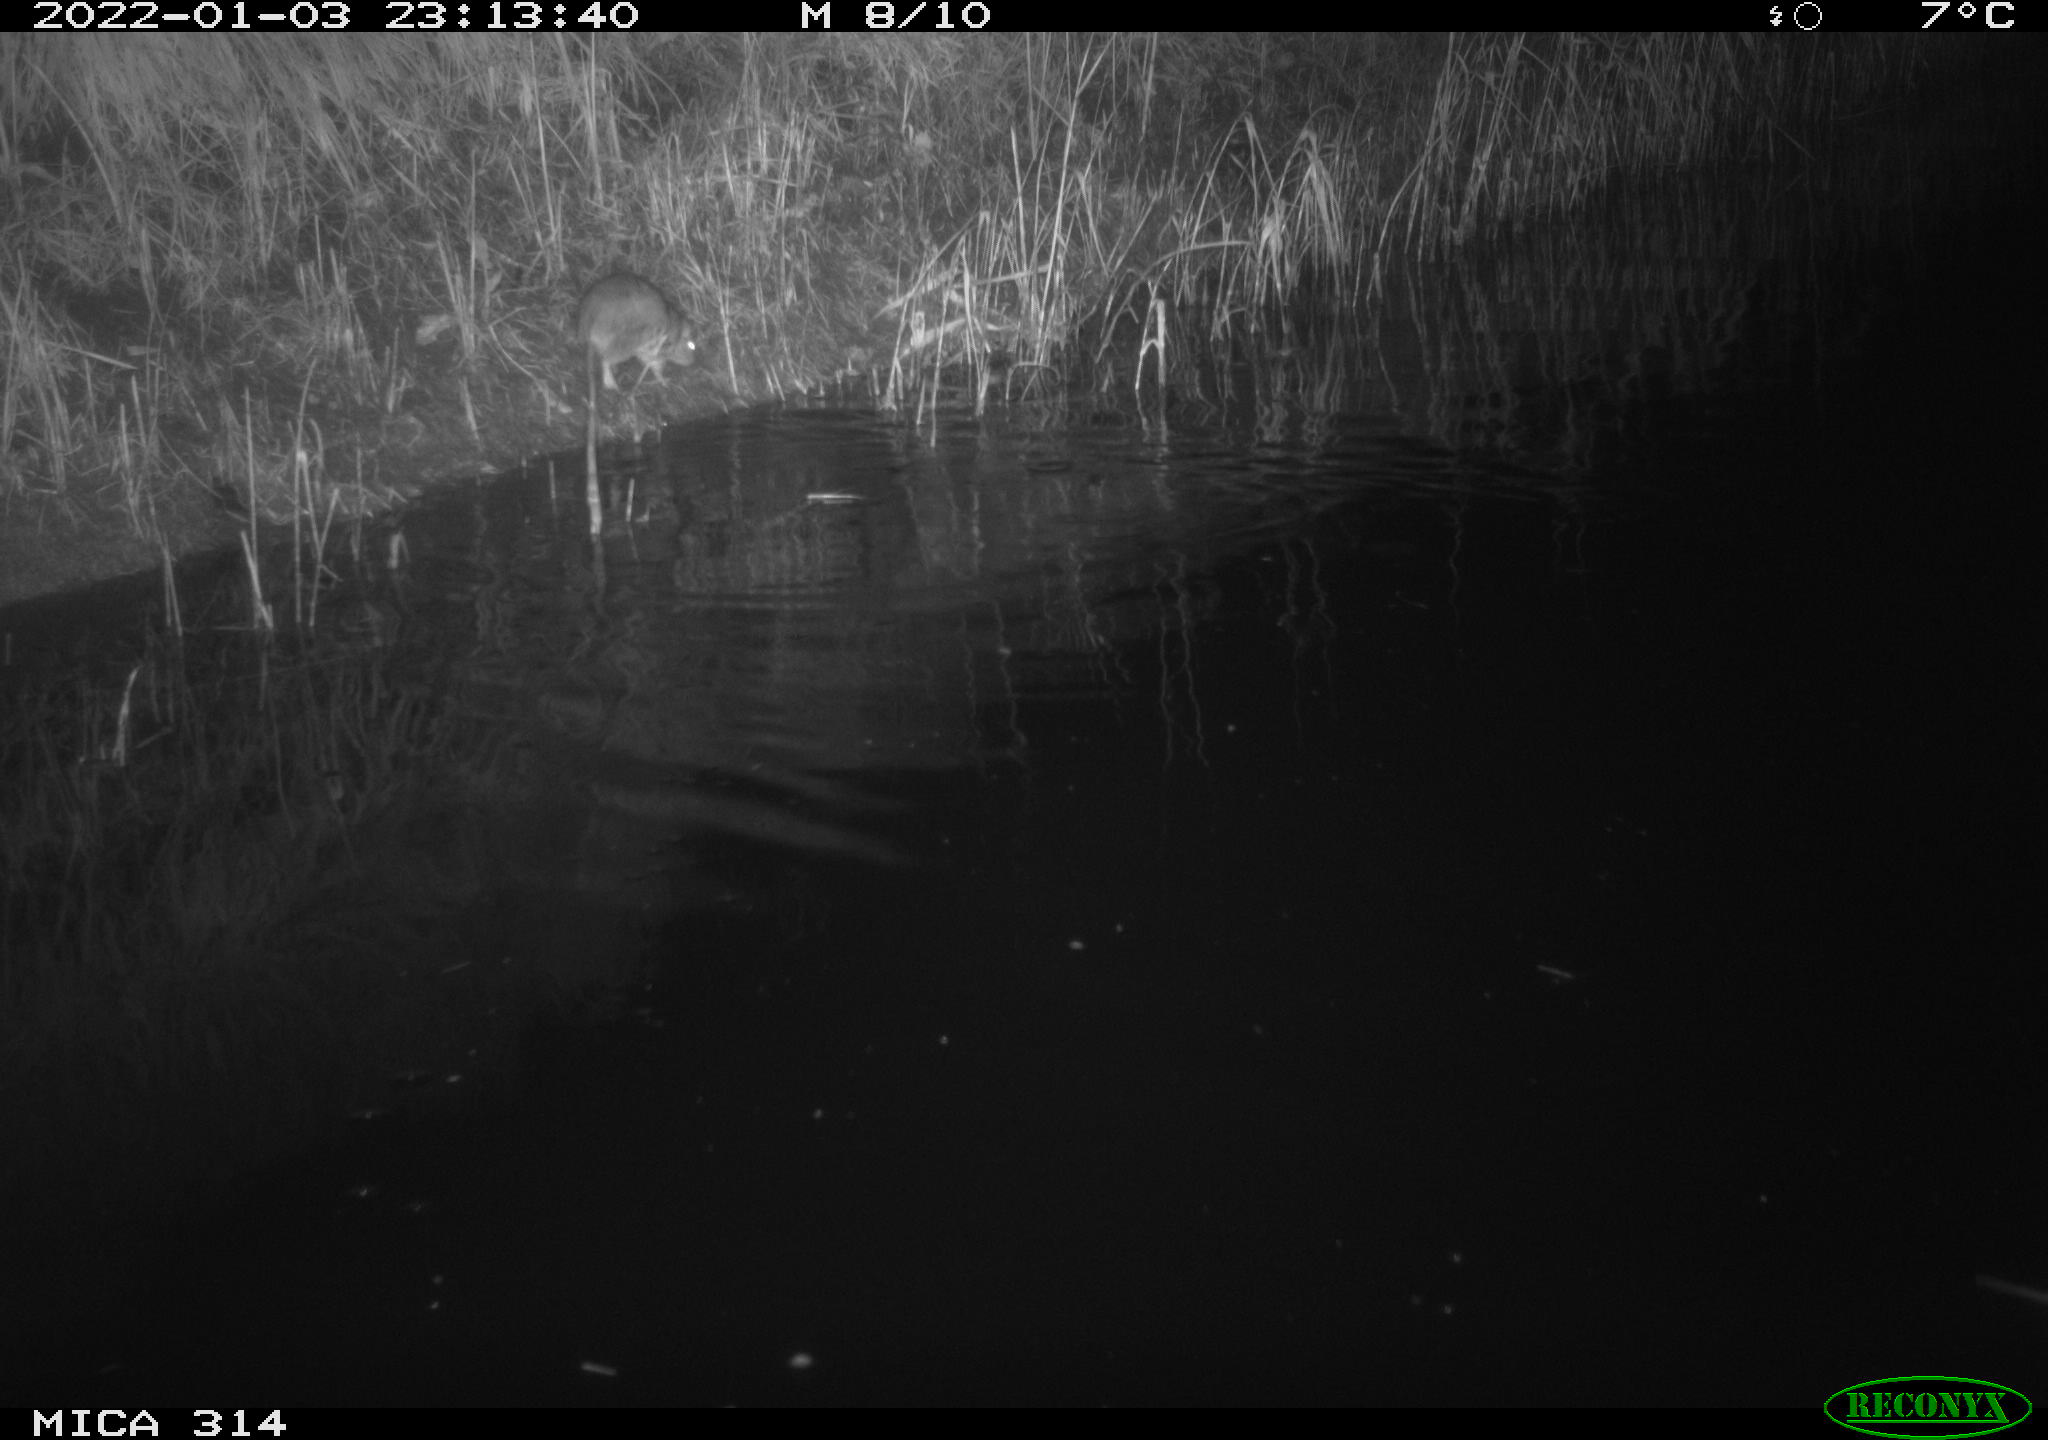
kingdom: Animalia
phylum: Chordata
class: Mammalia
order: Rodentia
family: Muridae
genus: Rattus
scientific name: Rattus norvegicus
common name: Brown rat
